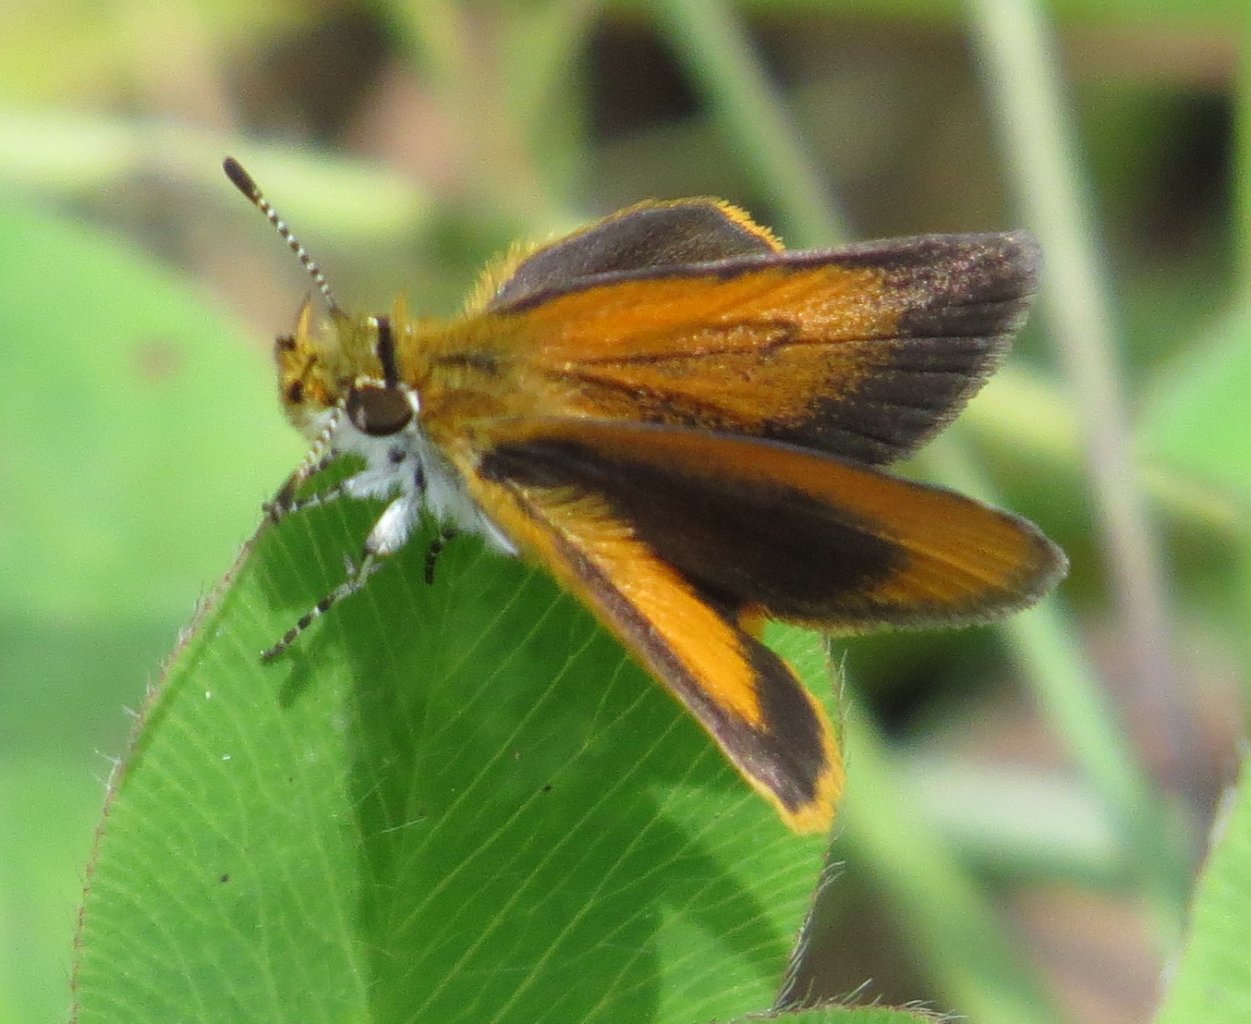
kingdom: Animalia
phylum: Arthropoda
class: Insecta
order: Lepidoptera
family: Hesperiidae
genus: Ancyloxypha
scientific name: Ancyloxypha numitor
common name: Least Skipper
